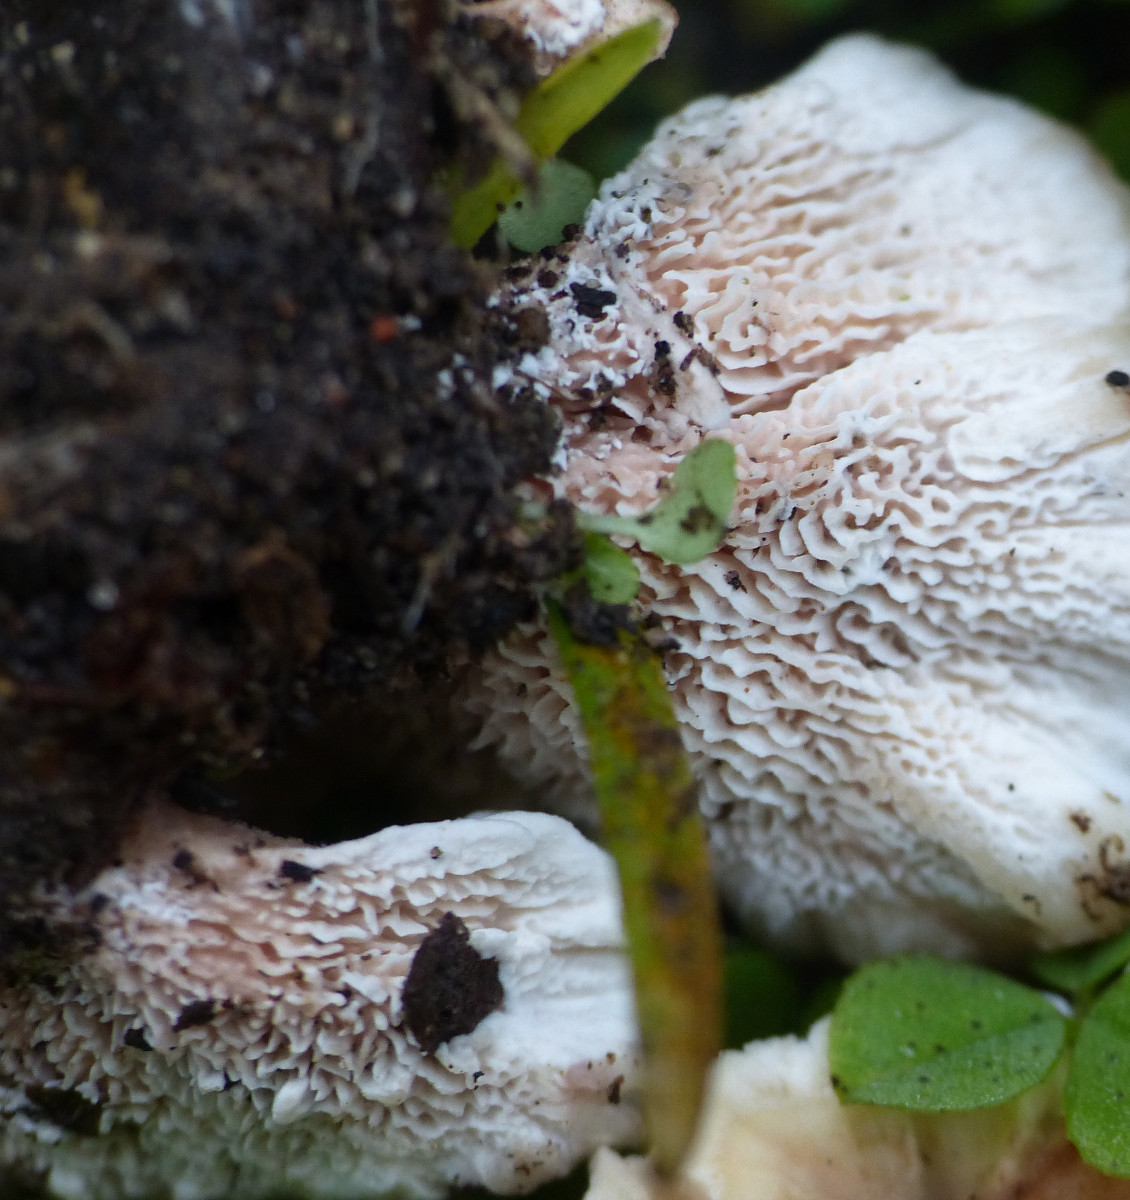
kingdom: Fungi
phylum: Basidiomycota
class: Agaricomycetes
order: Polyporales
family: Podoscyphaceae
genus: Abortiporus
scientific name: Abortiporus biennis
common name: rødmende pjalteporesvamp
